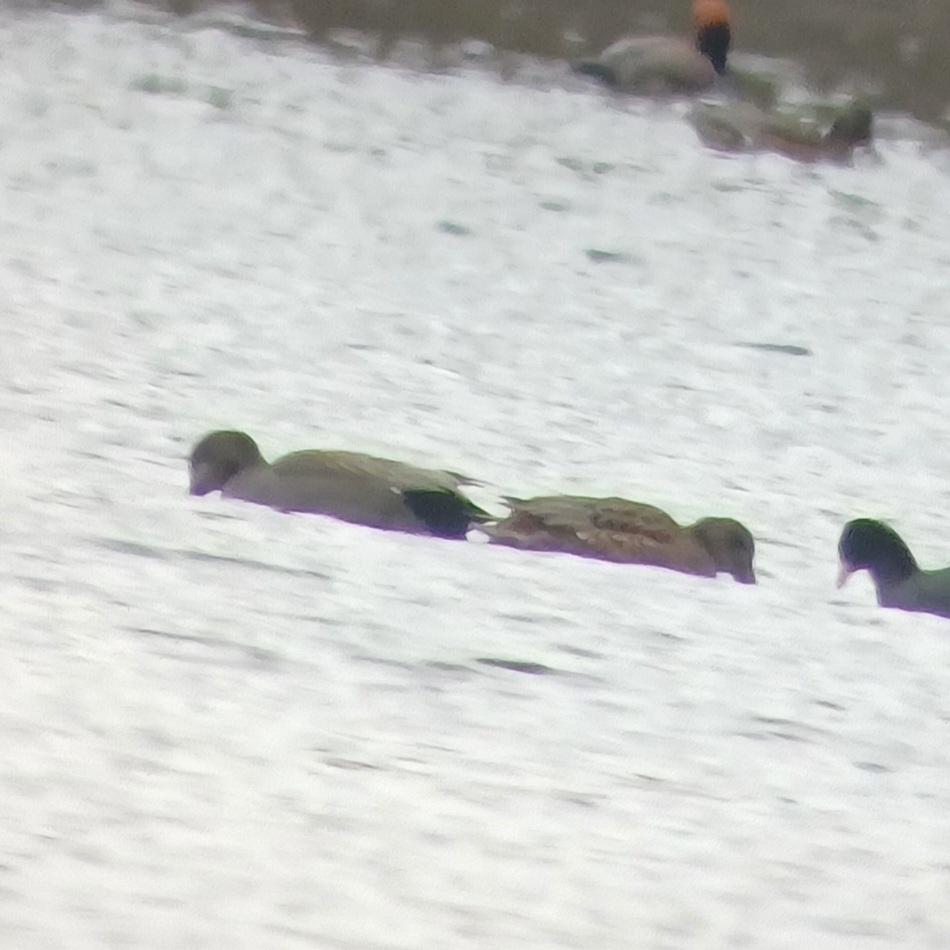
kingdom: Animalia
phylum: Chordata
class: Aves
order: Anseriformes
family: Anatidae
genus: Mareca
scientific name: Mareca strepera
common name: Knarand
